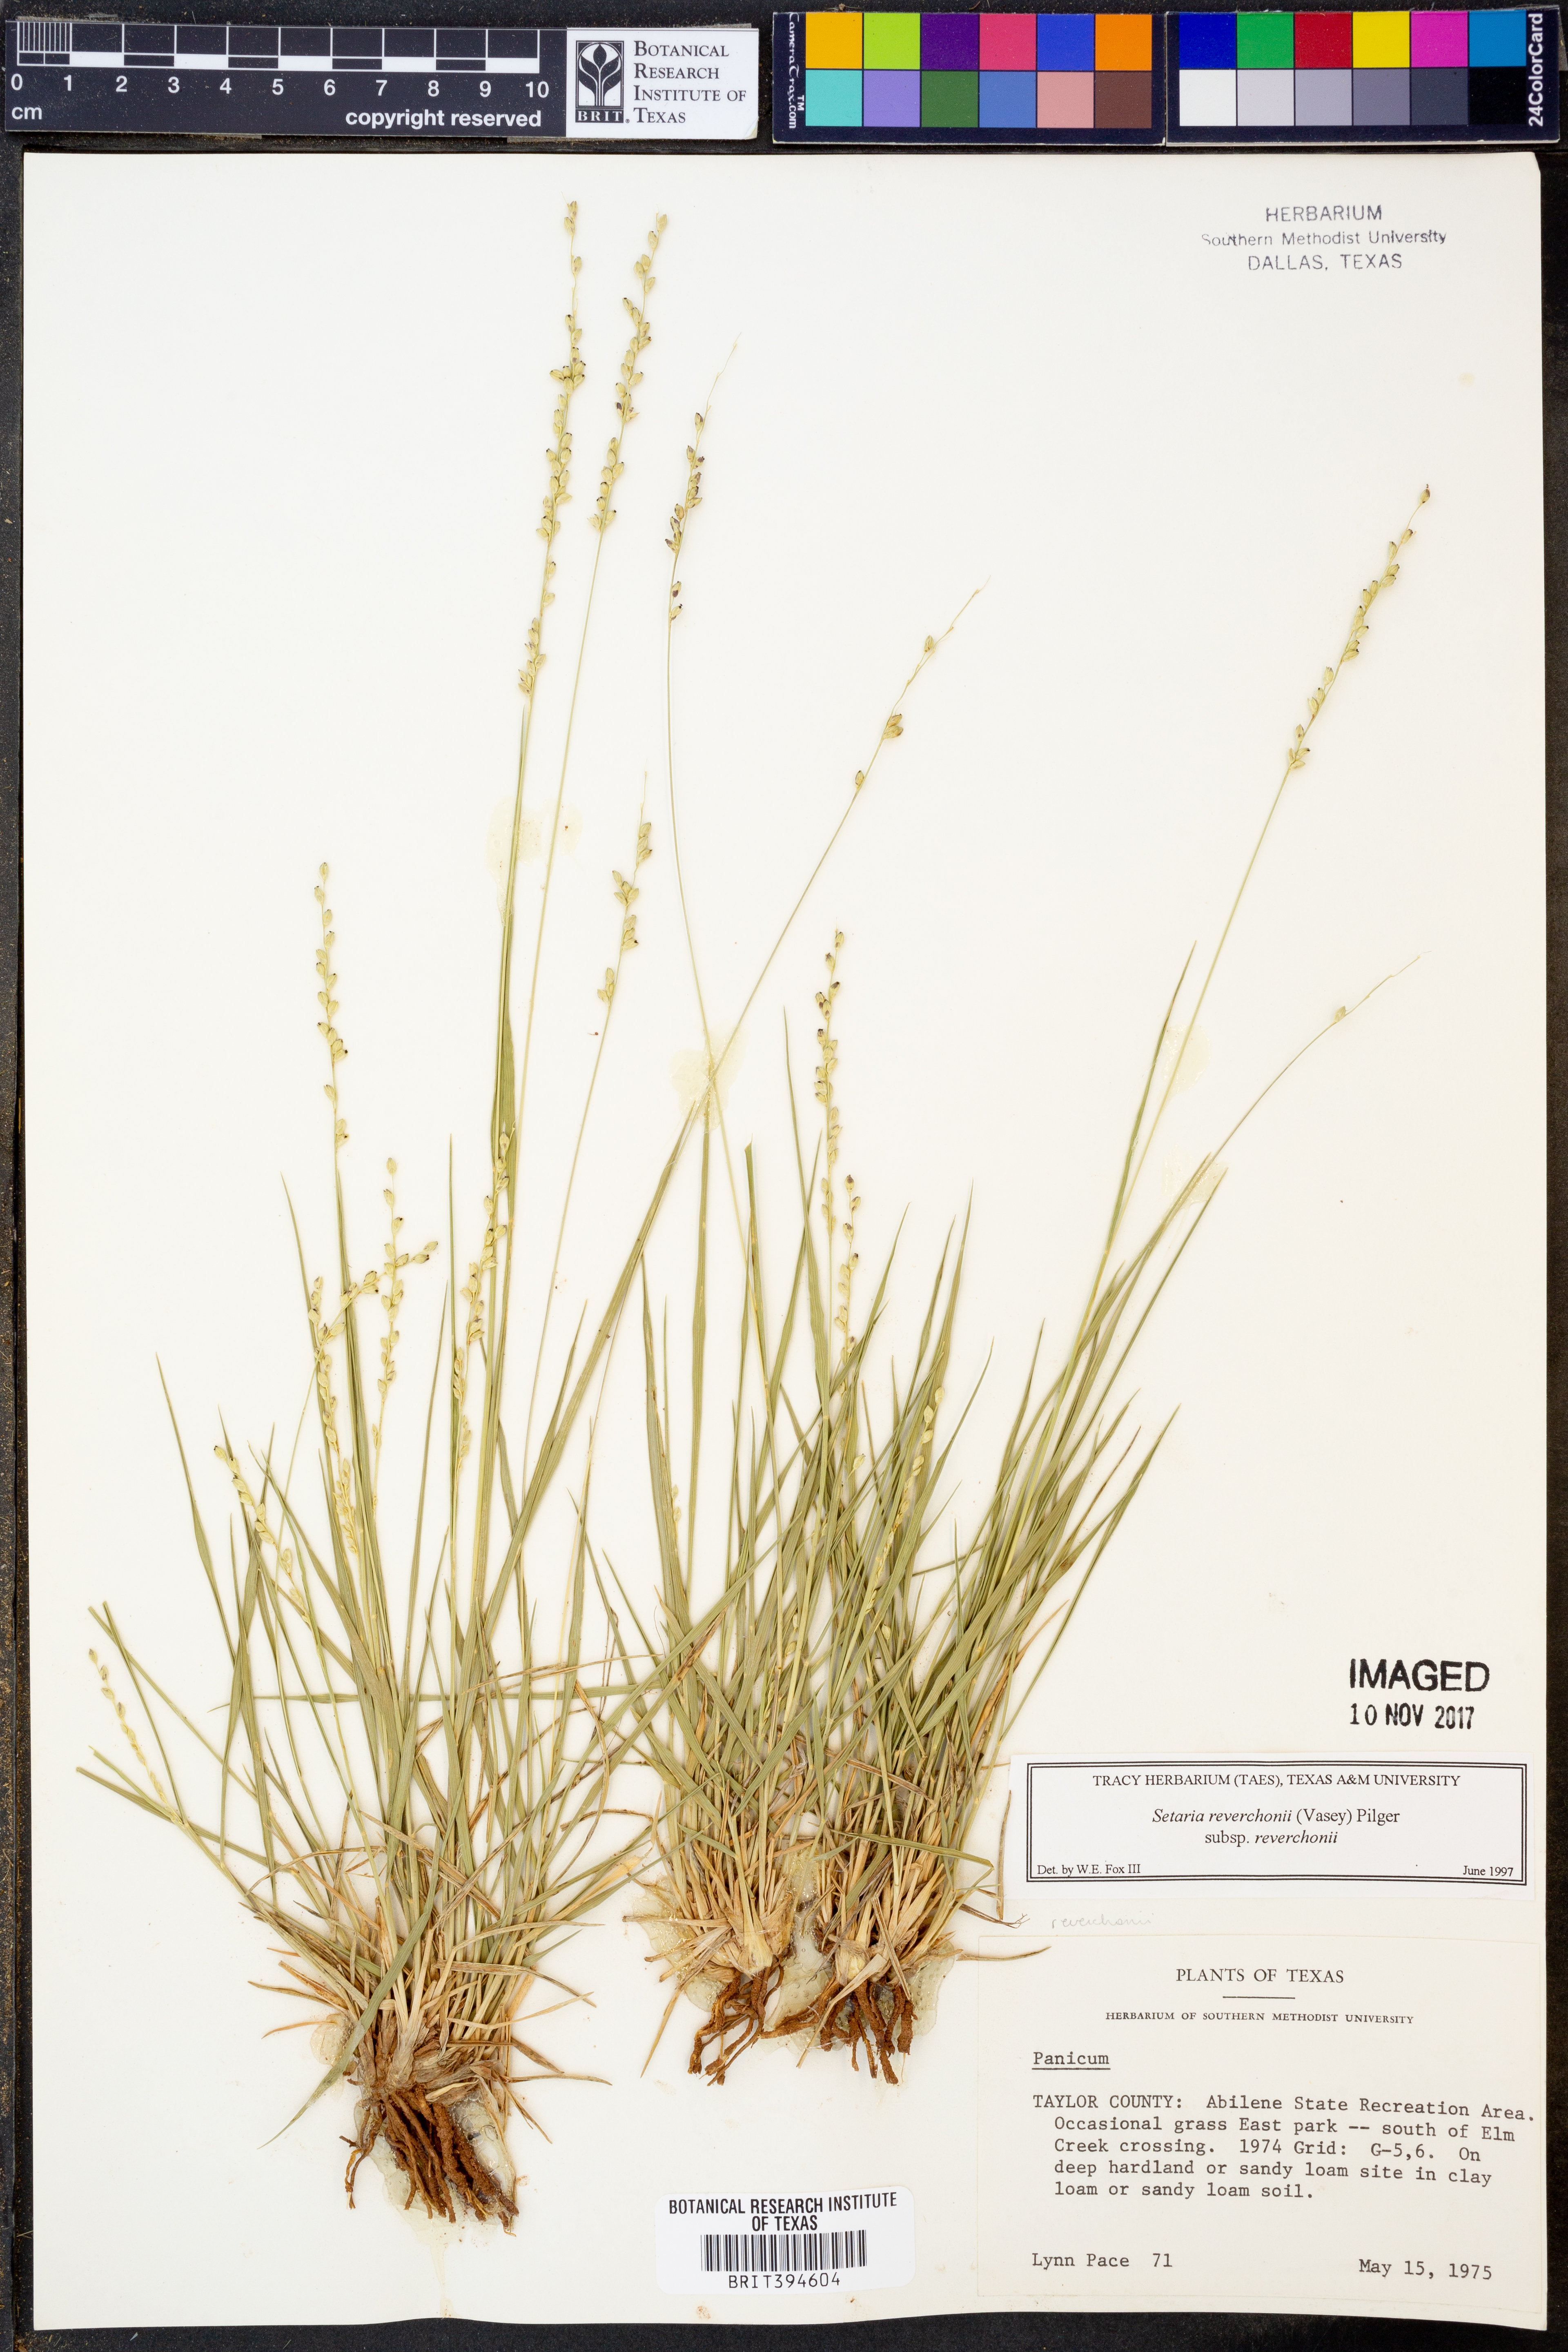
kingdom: Plantae
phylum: Tracheophyta
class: Liliopsida
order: Poales
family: Poaceae
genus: Setaria
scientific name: Setaria reverchonii
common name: Reverchon's bristle grass
